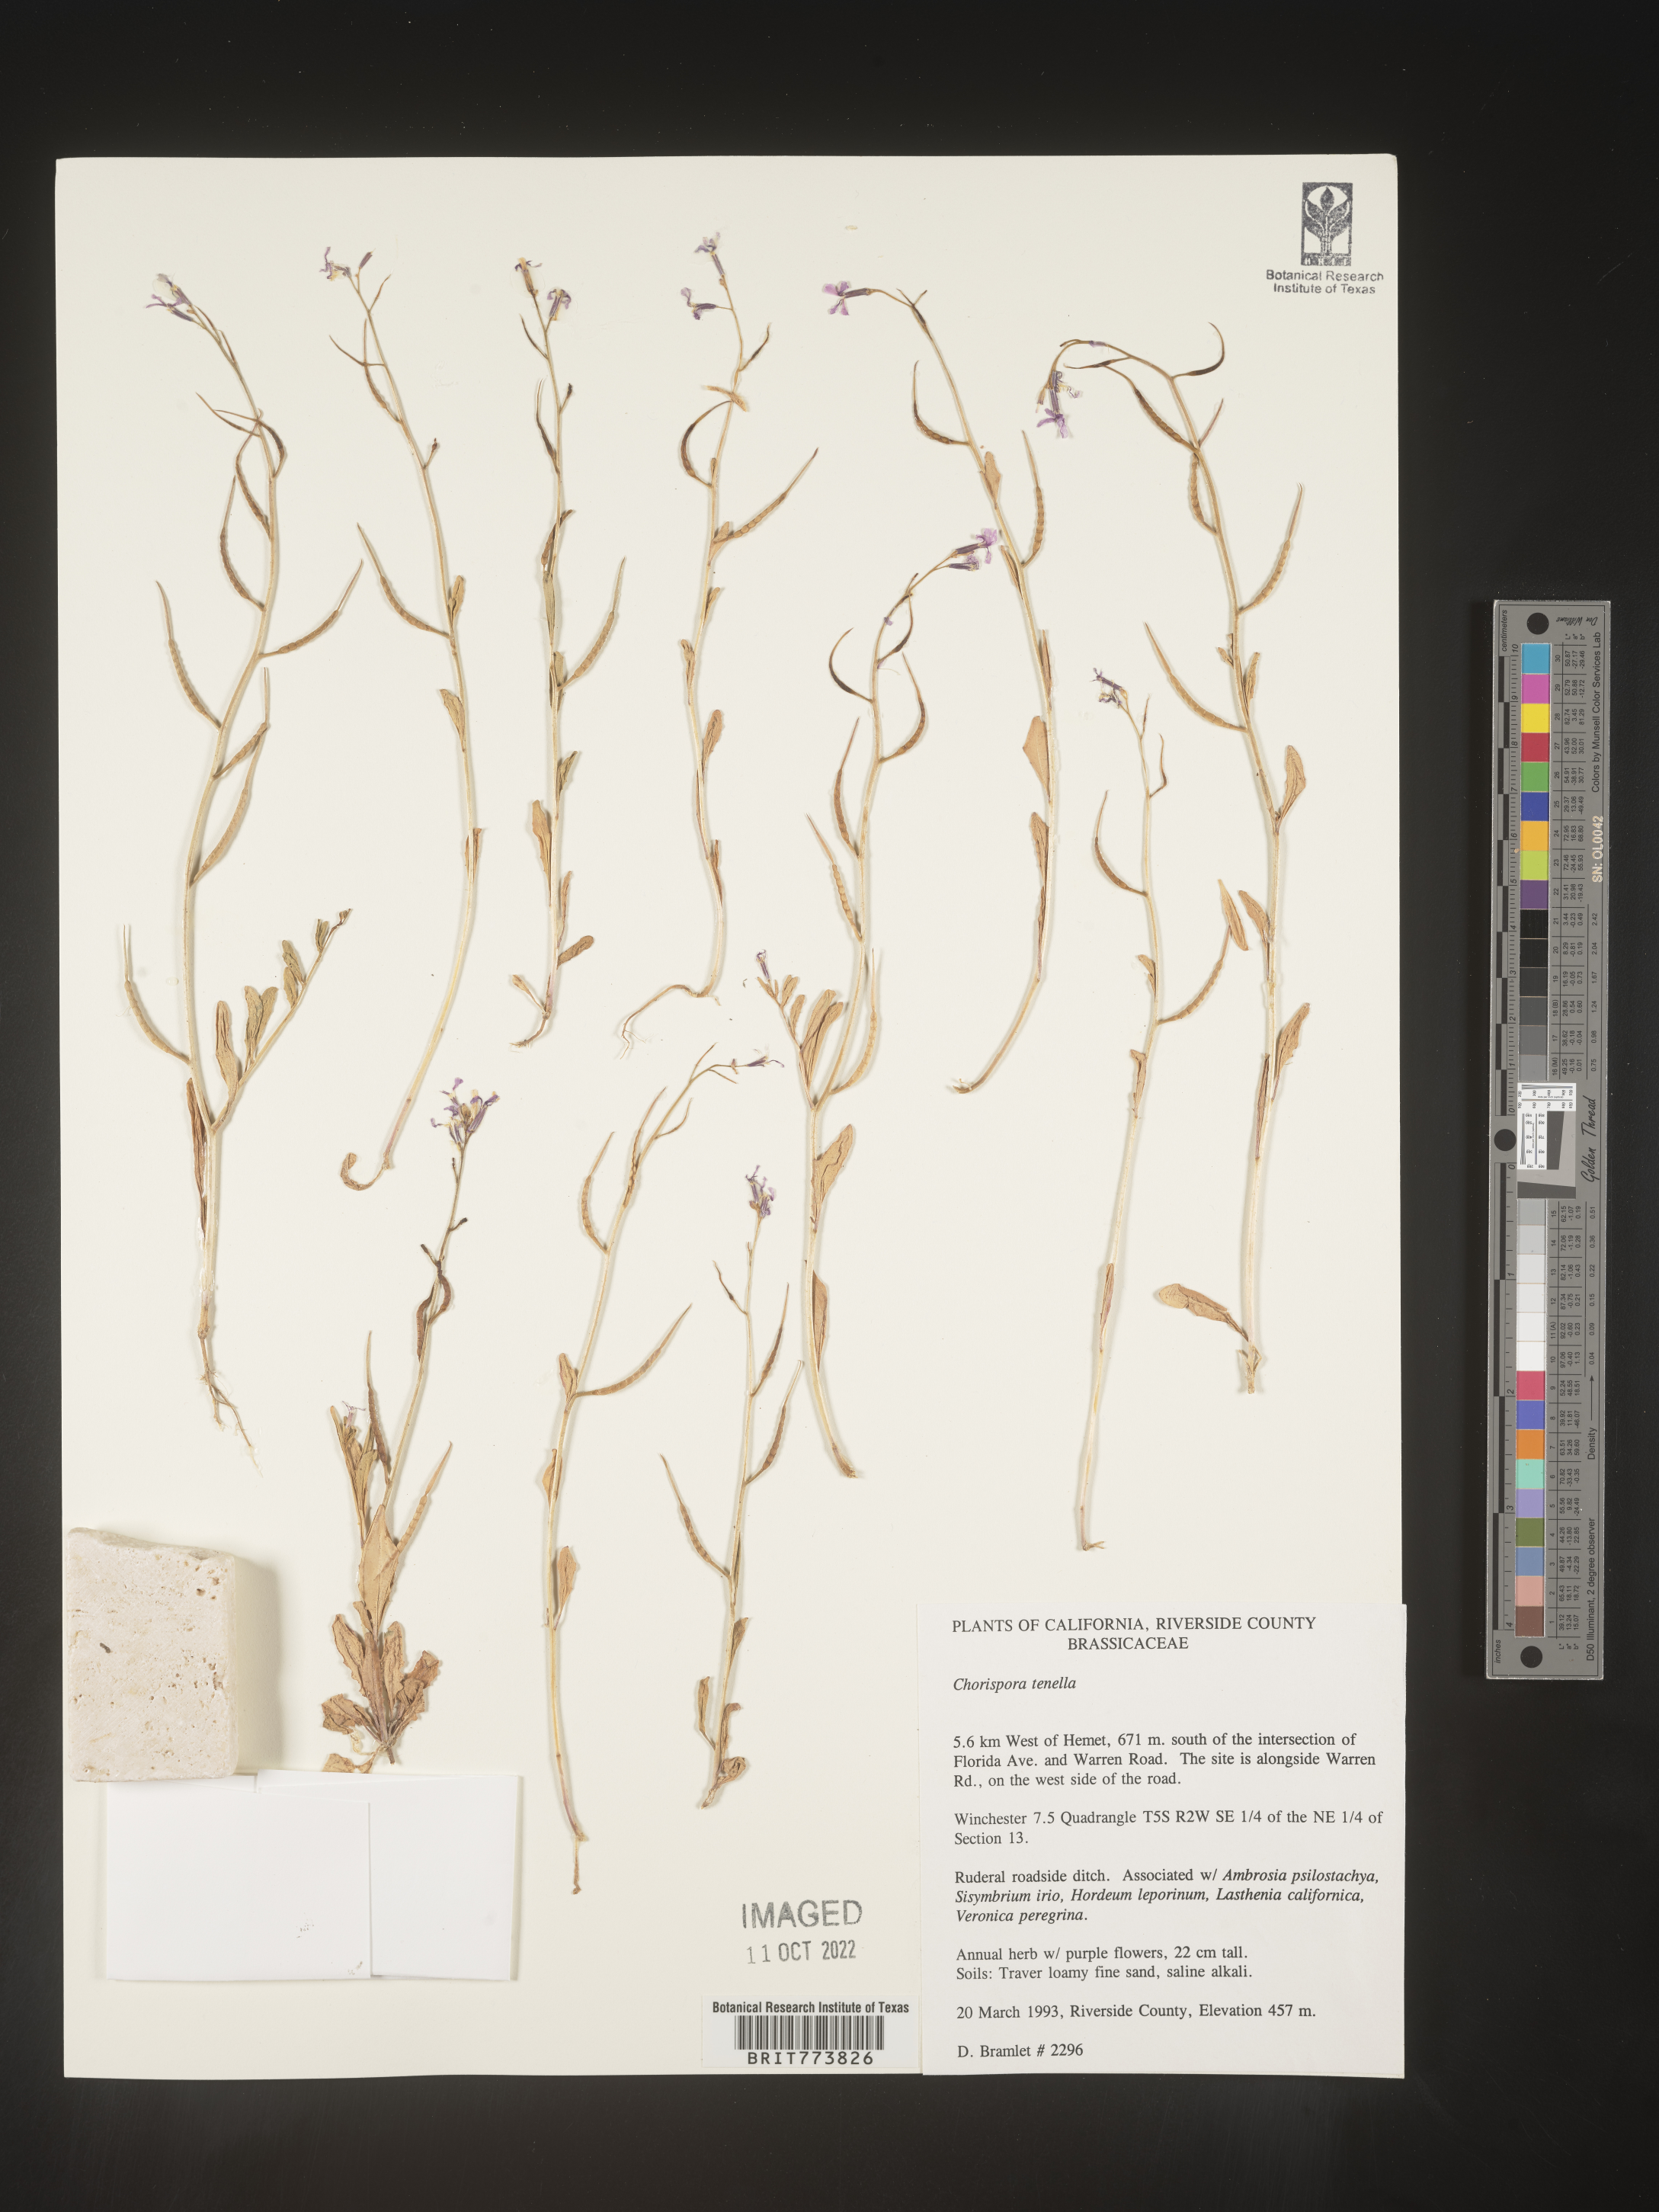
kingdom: Plantae
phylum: Tracheophyta
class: Magnoliopsida
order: Brassicales
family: Brassicaceae
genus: Chorispora
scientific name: Chorispora tenella
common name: Crossflower
